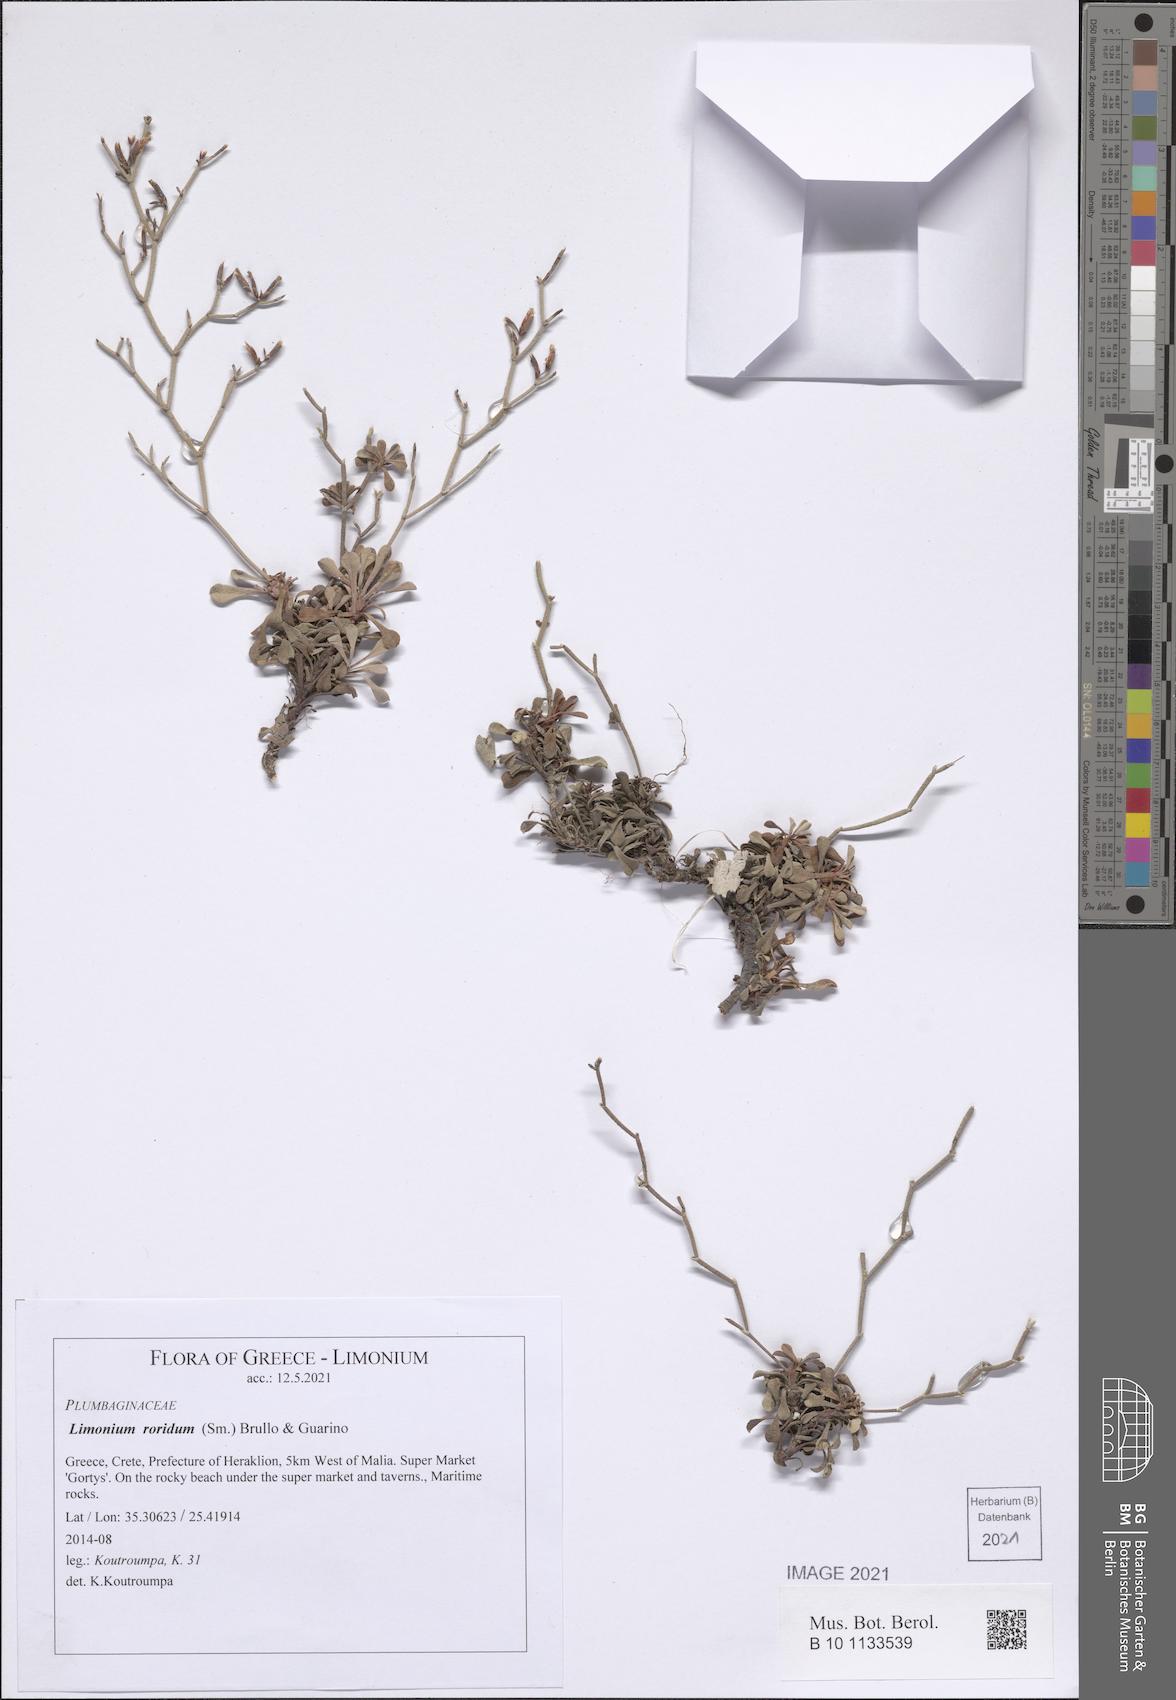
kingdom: Plantae
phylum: Tracheophyta
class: Magnoliopsida
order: Caryophyllales
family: Plumbaginaceae
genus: Limonium
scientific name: Limonium roridum
